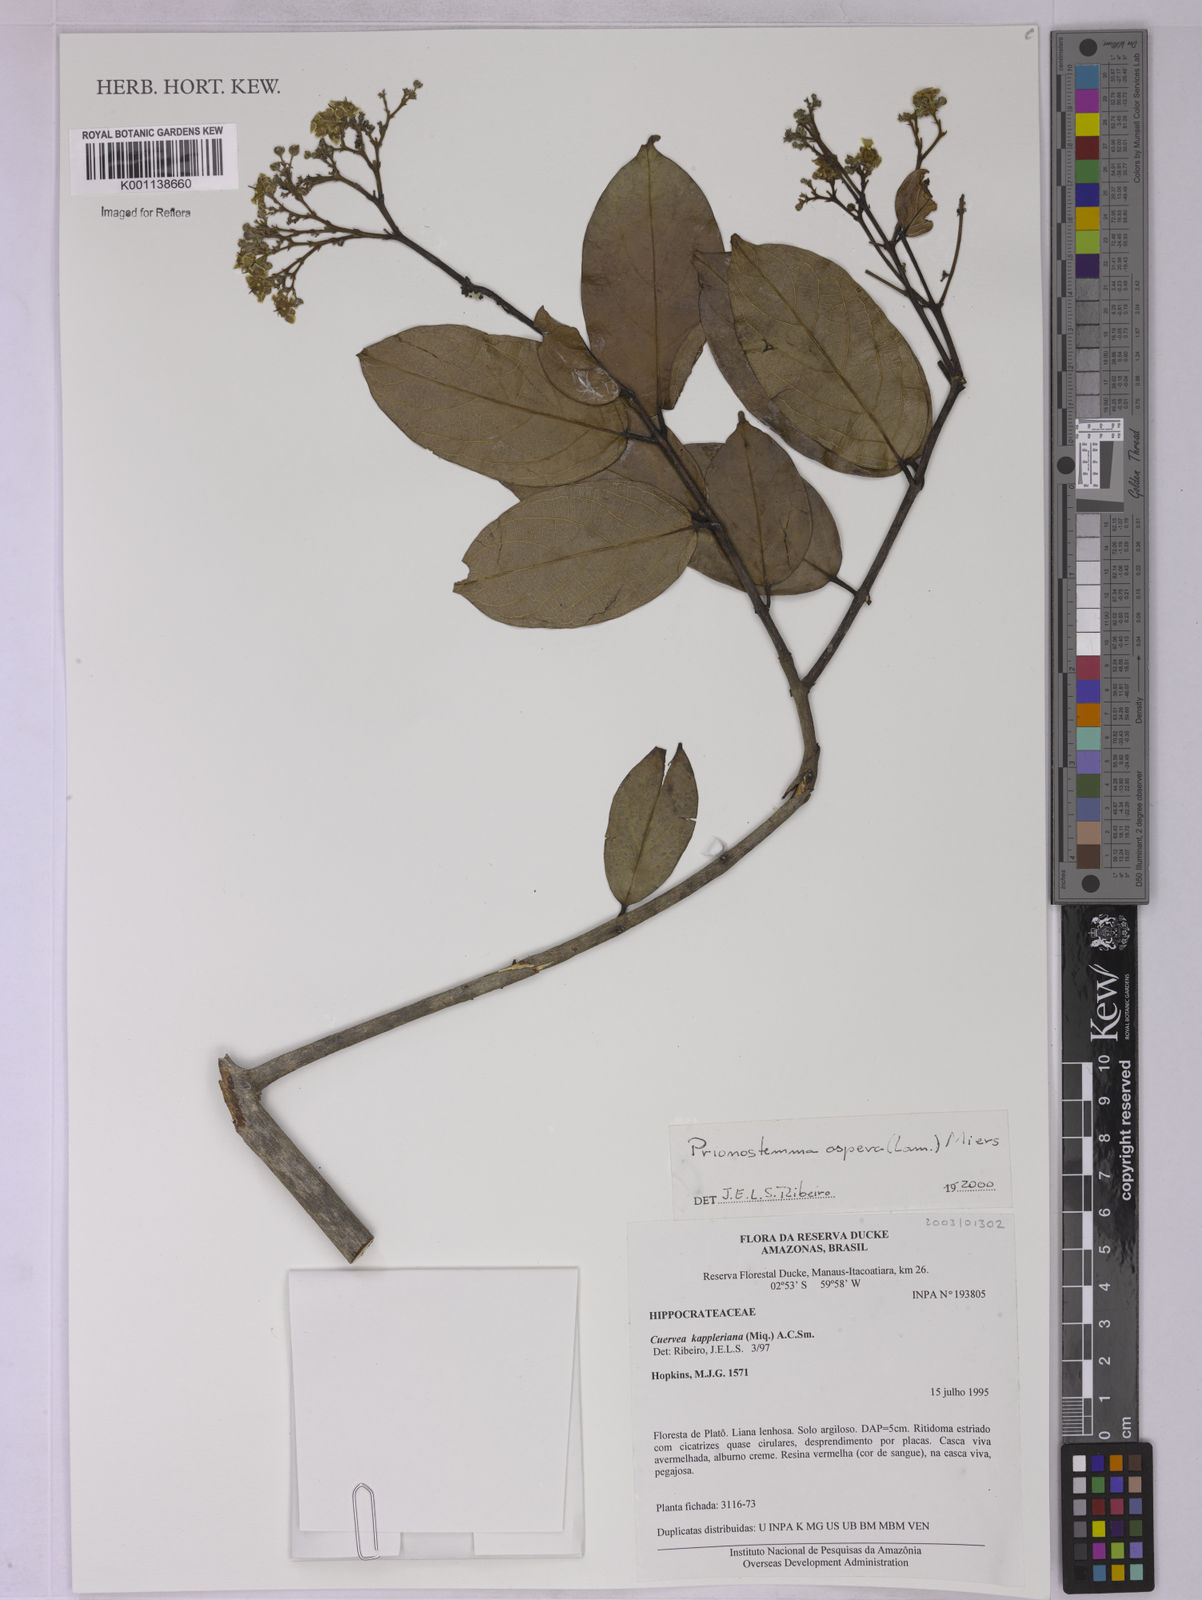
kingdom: Plantae
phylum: Tracheophyta
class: Magnoliopsida
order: Celastrales
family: Celastraceae
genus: Prionostemma
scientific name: Prionostemma aspera
